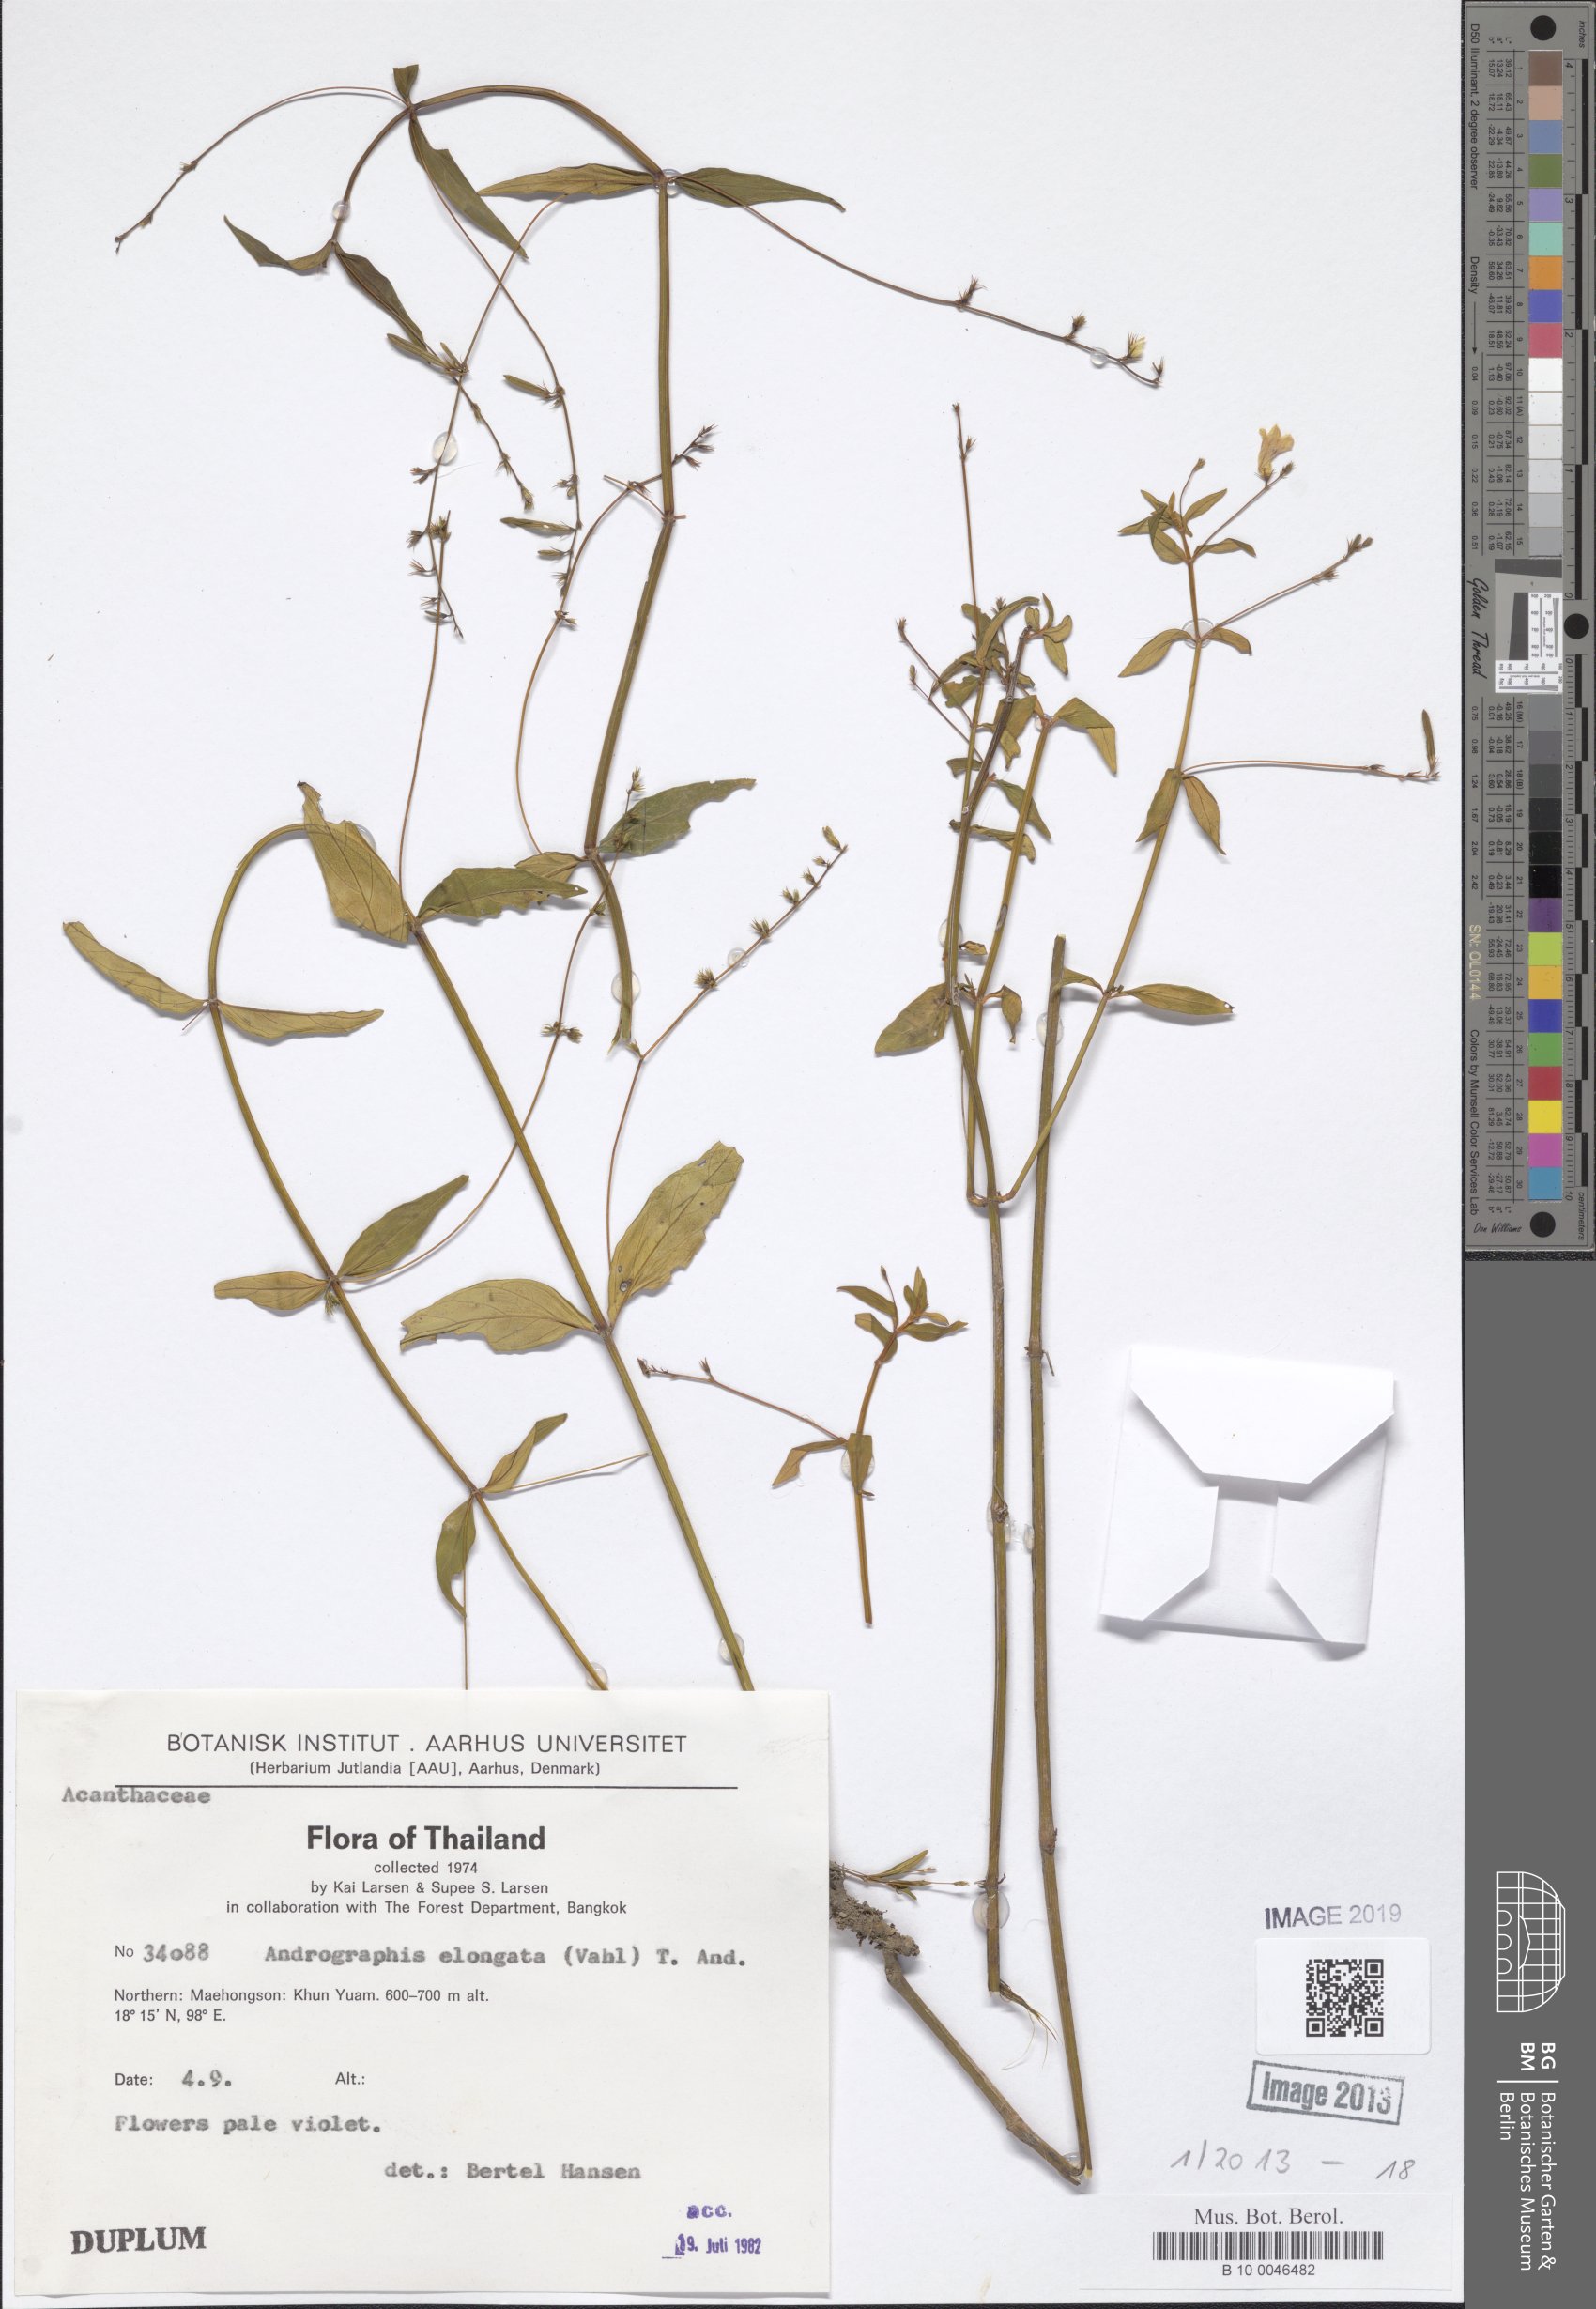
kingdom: Plantae
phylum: Tracheophyta
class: Magnoliopsida
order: Lamiales
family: Acanthaceae
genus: Andrographis
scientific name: Andrographis elongata
